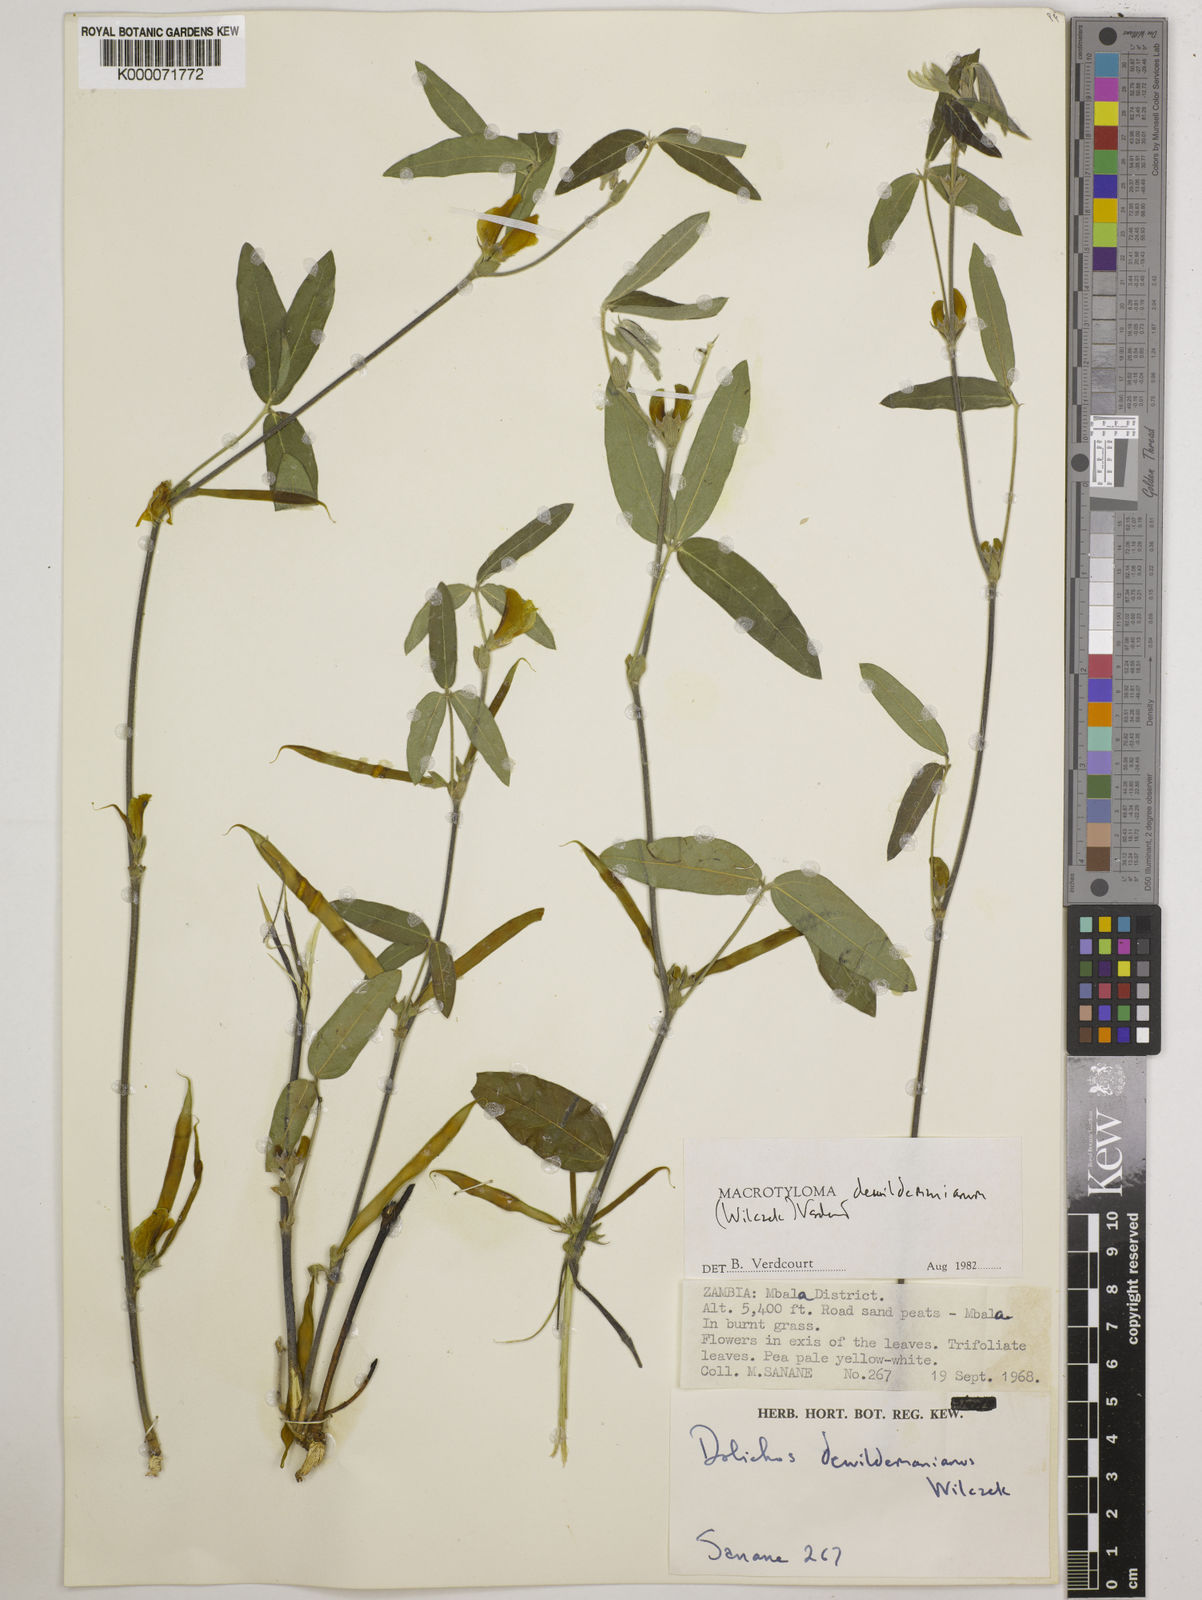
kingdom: Plantae
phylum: Tracheophyta
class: Magnoliopsida
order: Fabales
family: Fabaceae
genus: Macrotyloma
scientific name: Macrotyloma dewildemanianum
